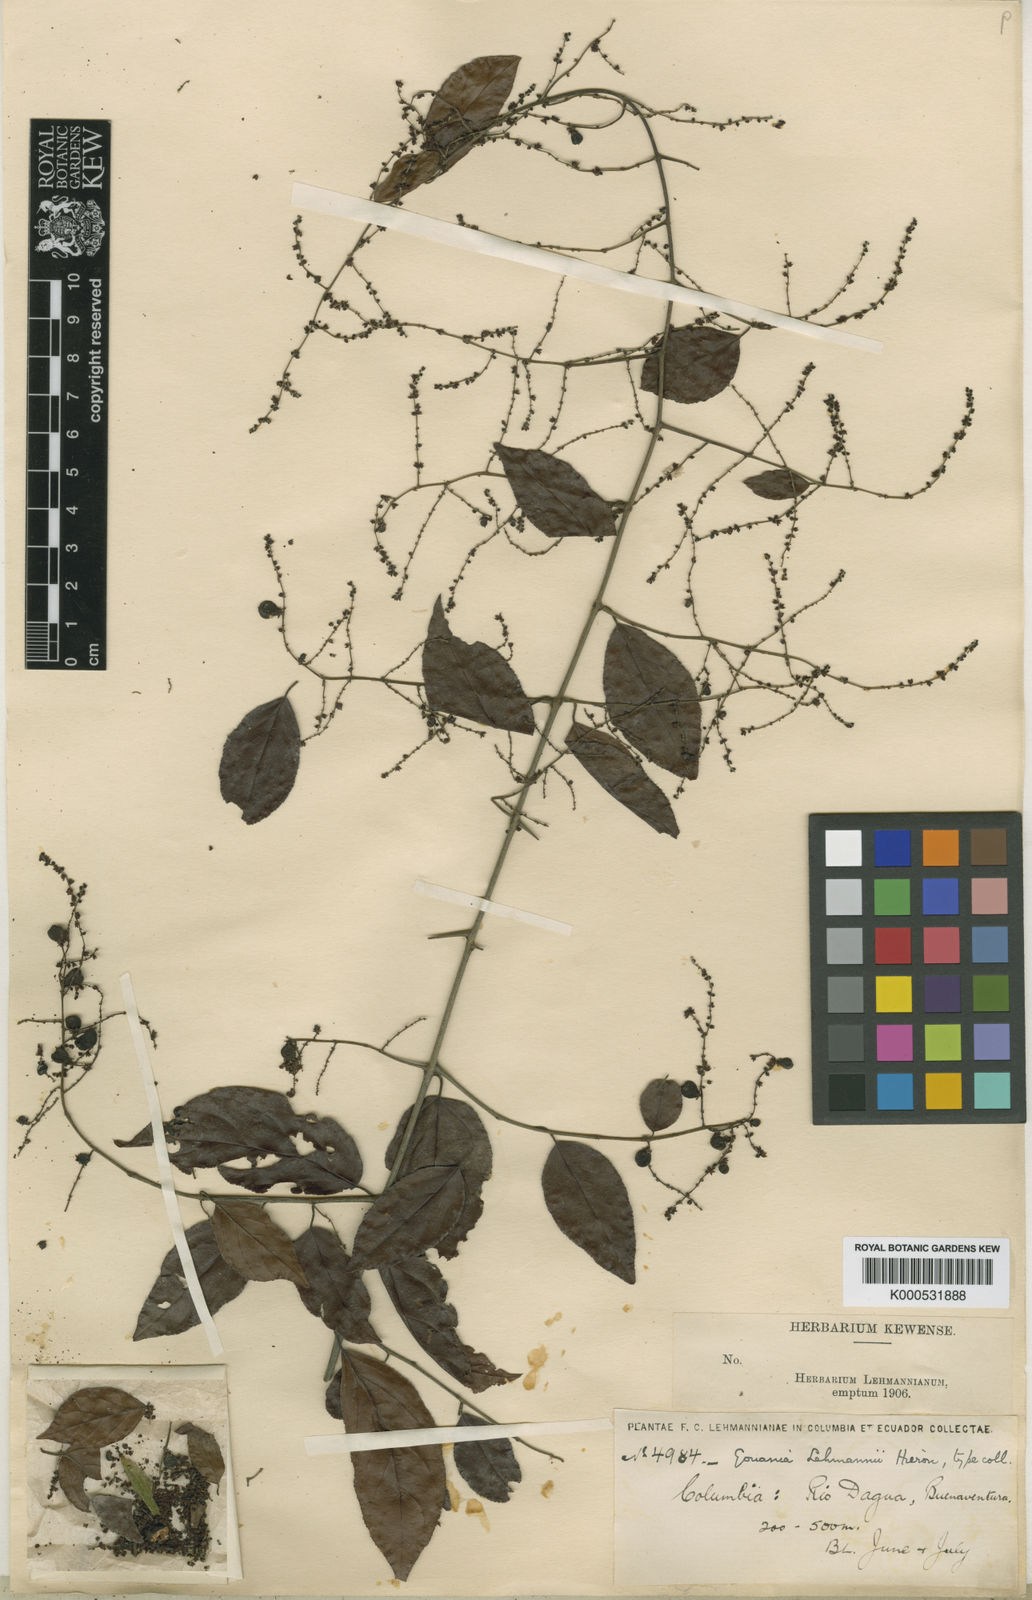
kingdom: Plantae
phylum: Tracheophyta
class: Magnoliopsida
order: Rosales
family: Rhamnaceae
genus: Sageretia
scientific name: Sageretia
